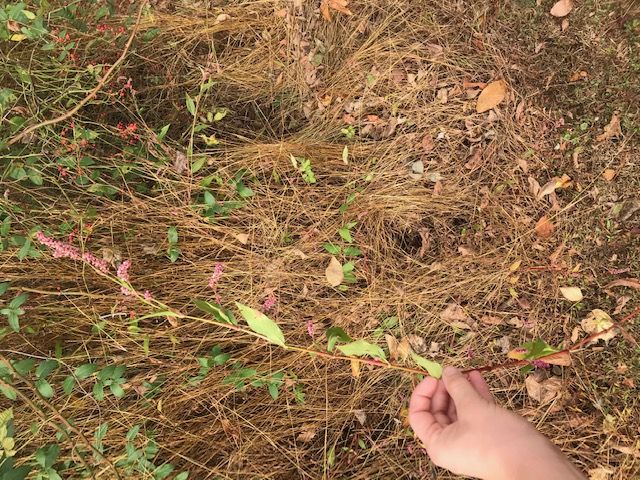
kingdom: Plantae
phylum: Tracheophyta
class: Magnoliopsida
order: Caryophyllales
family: Polygonaceae
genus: Persicaria
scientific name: Persicaria longiseta
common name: Creeping smartweed
